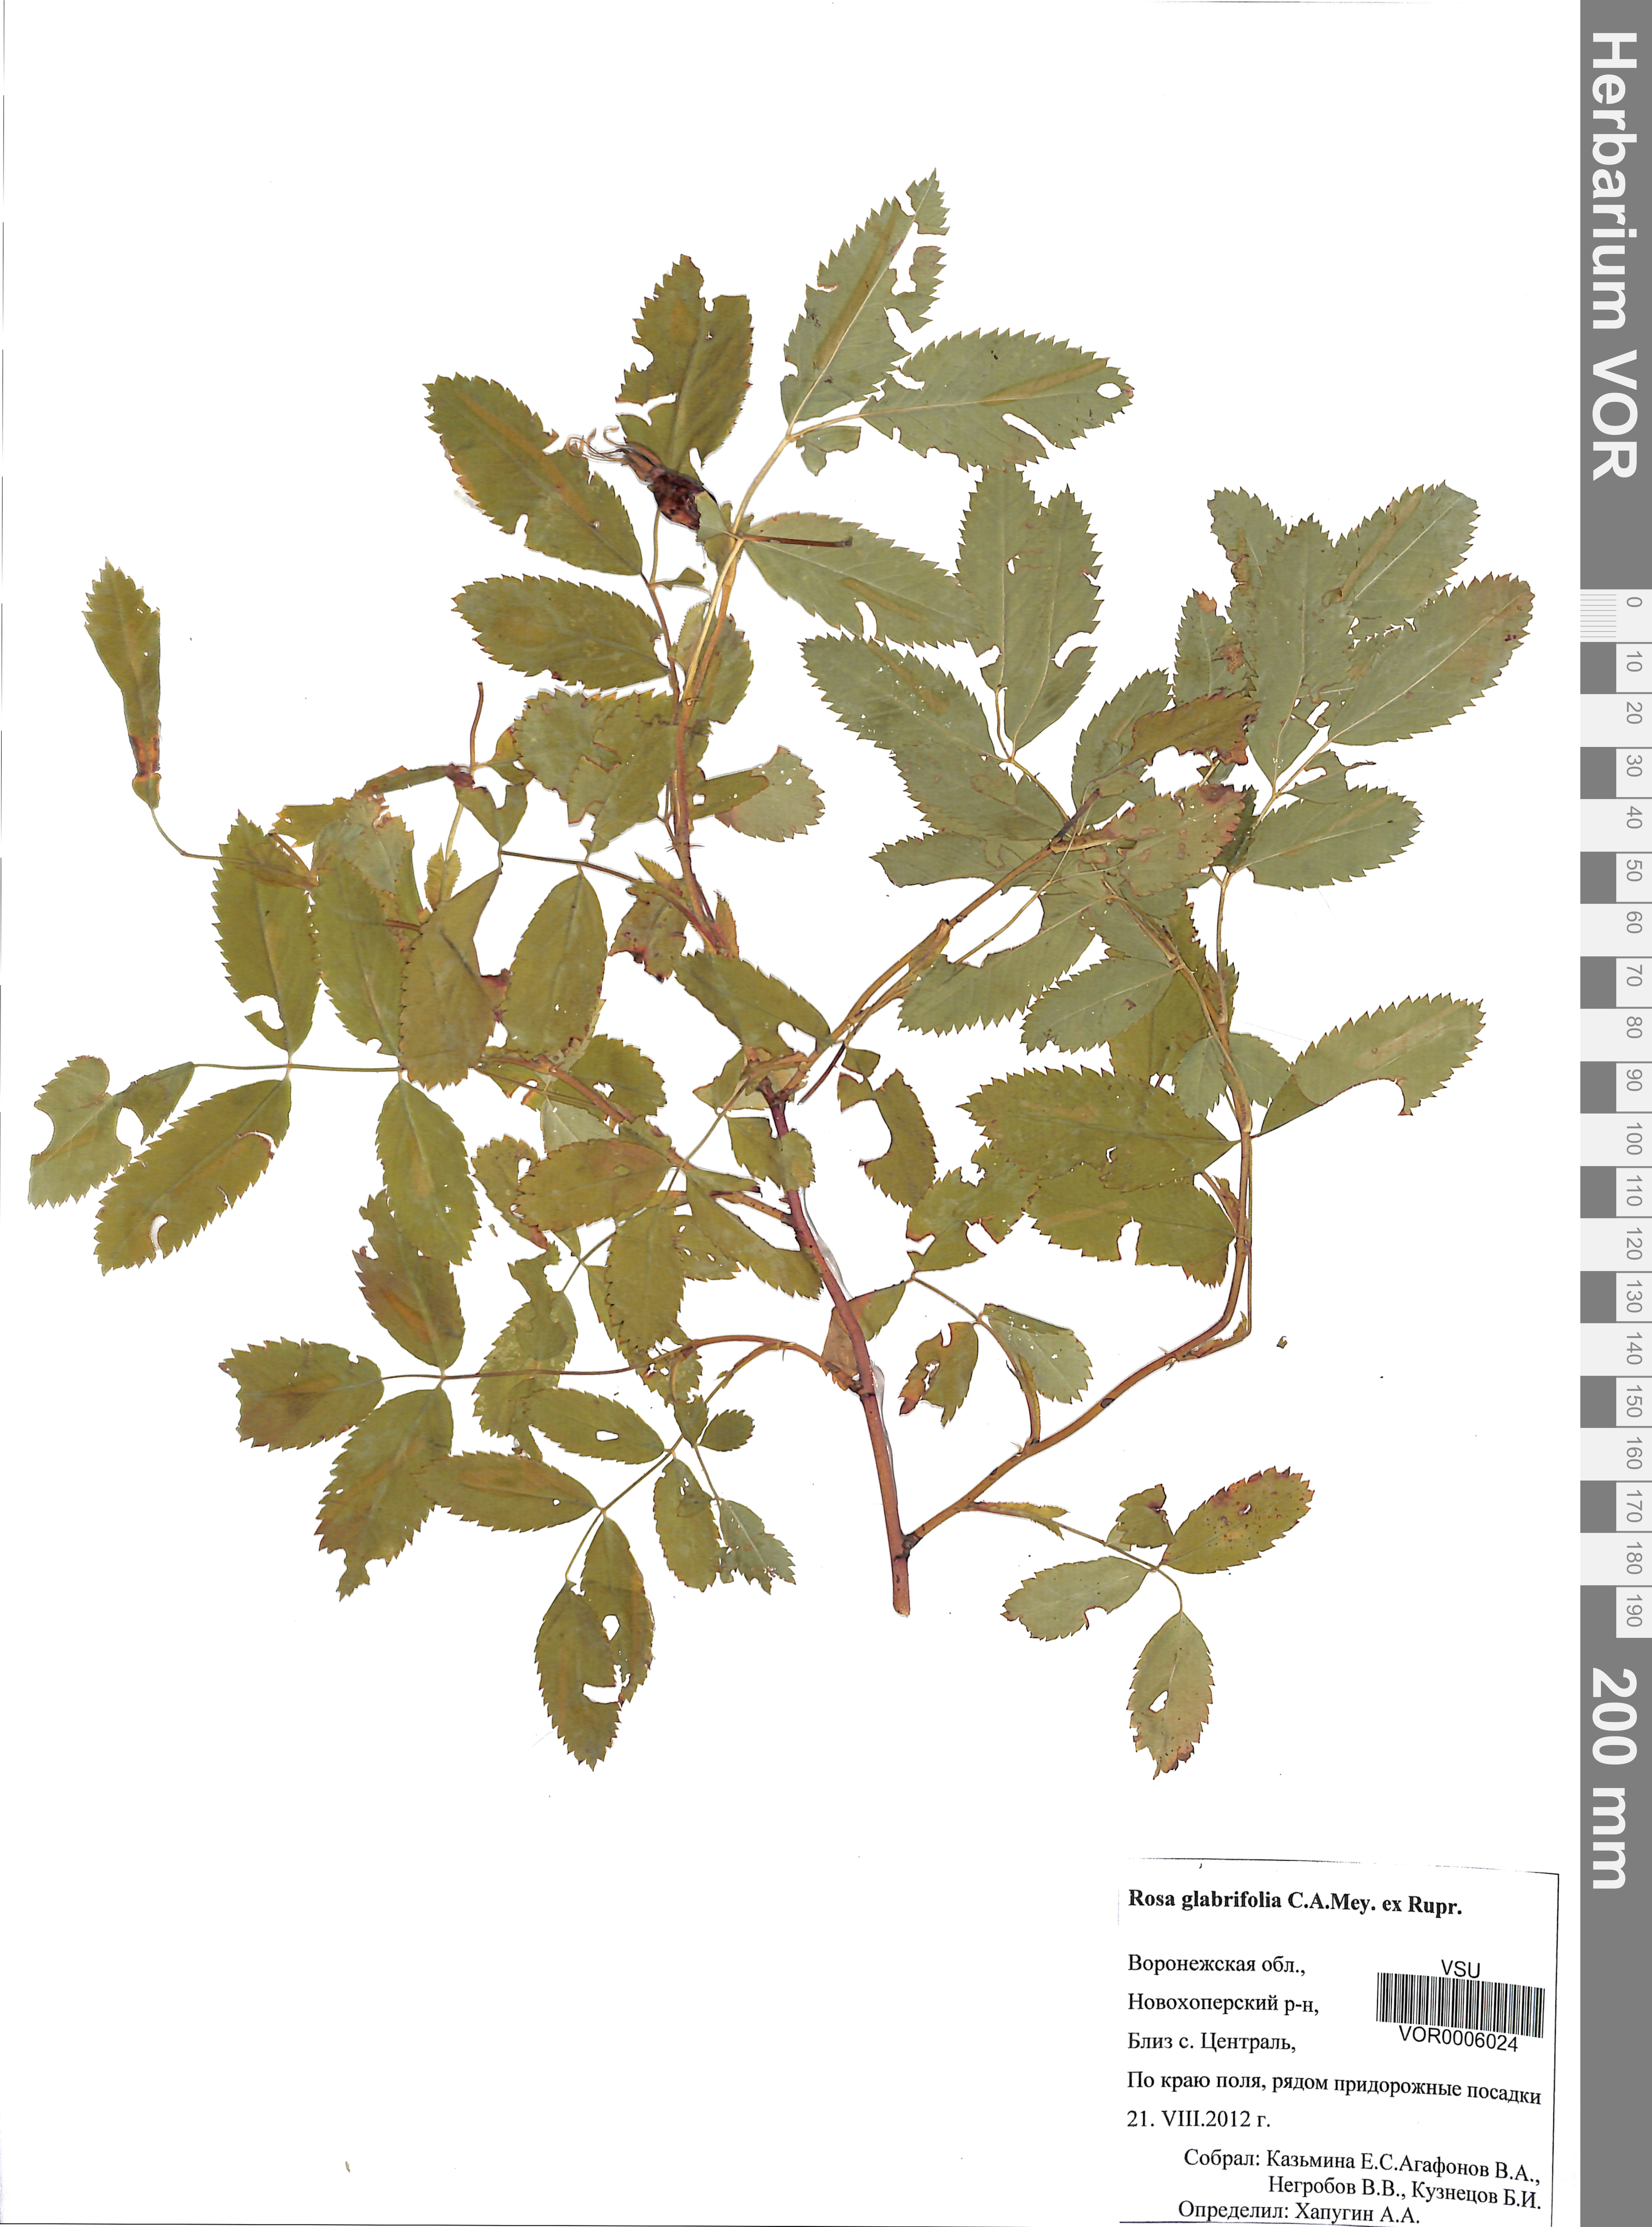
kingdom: Plantae
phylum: Tracheophyta
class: Magnoliopsida
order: Rosales
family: Rosaceae
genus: Rosa
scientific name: Rosa glabrifolia
